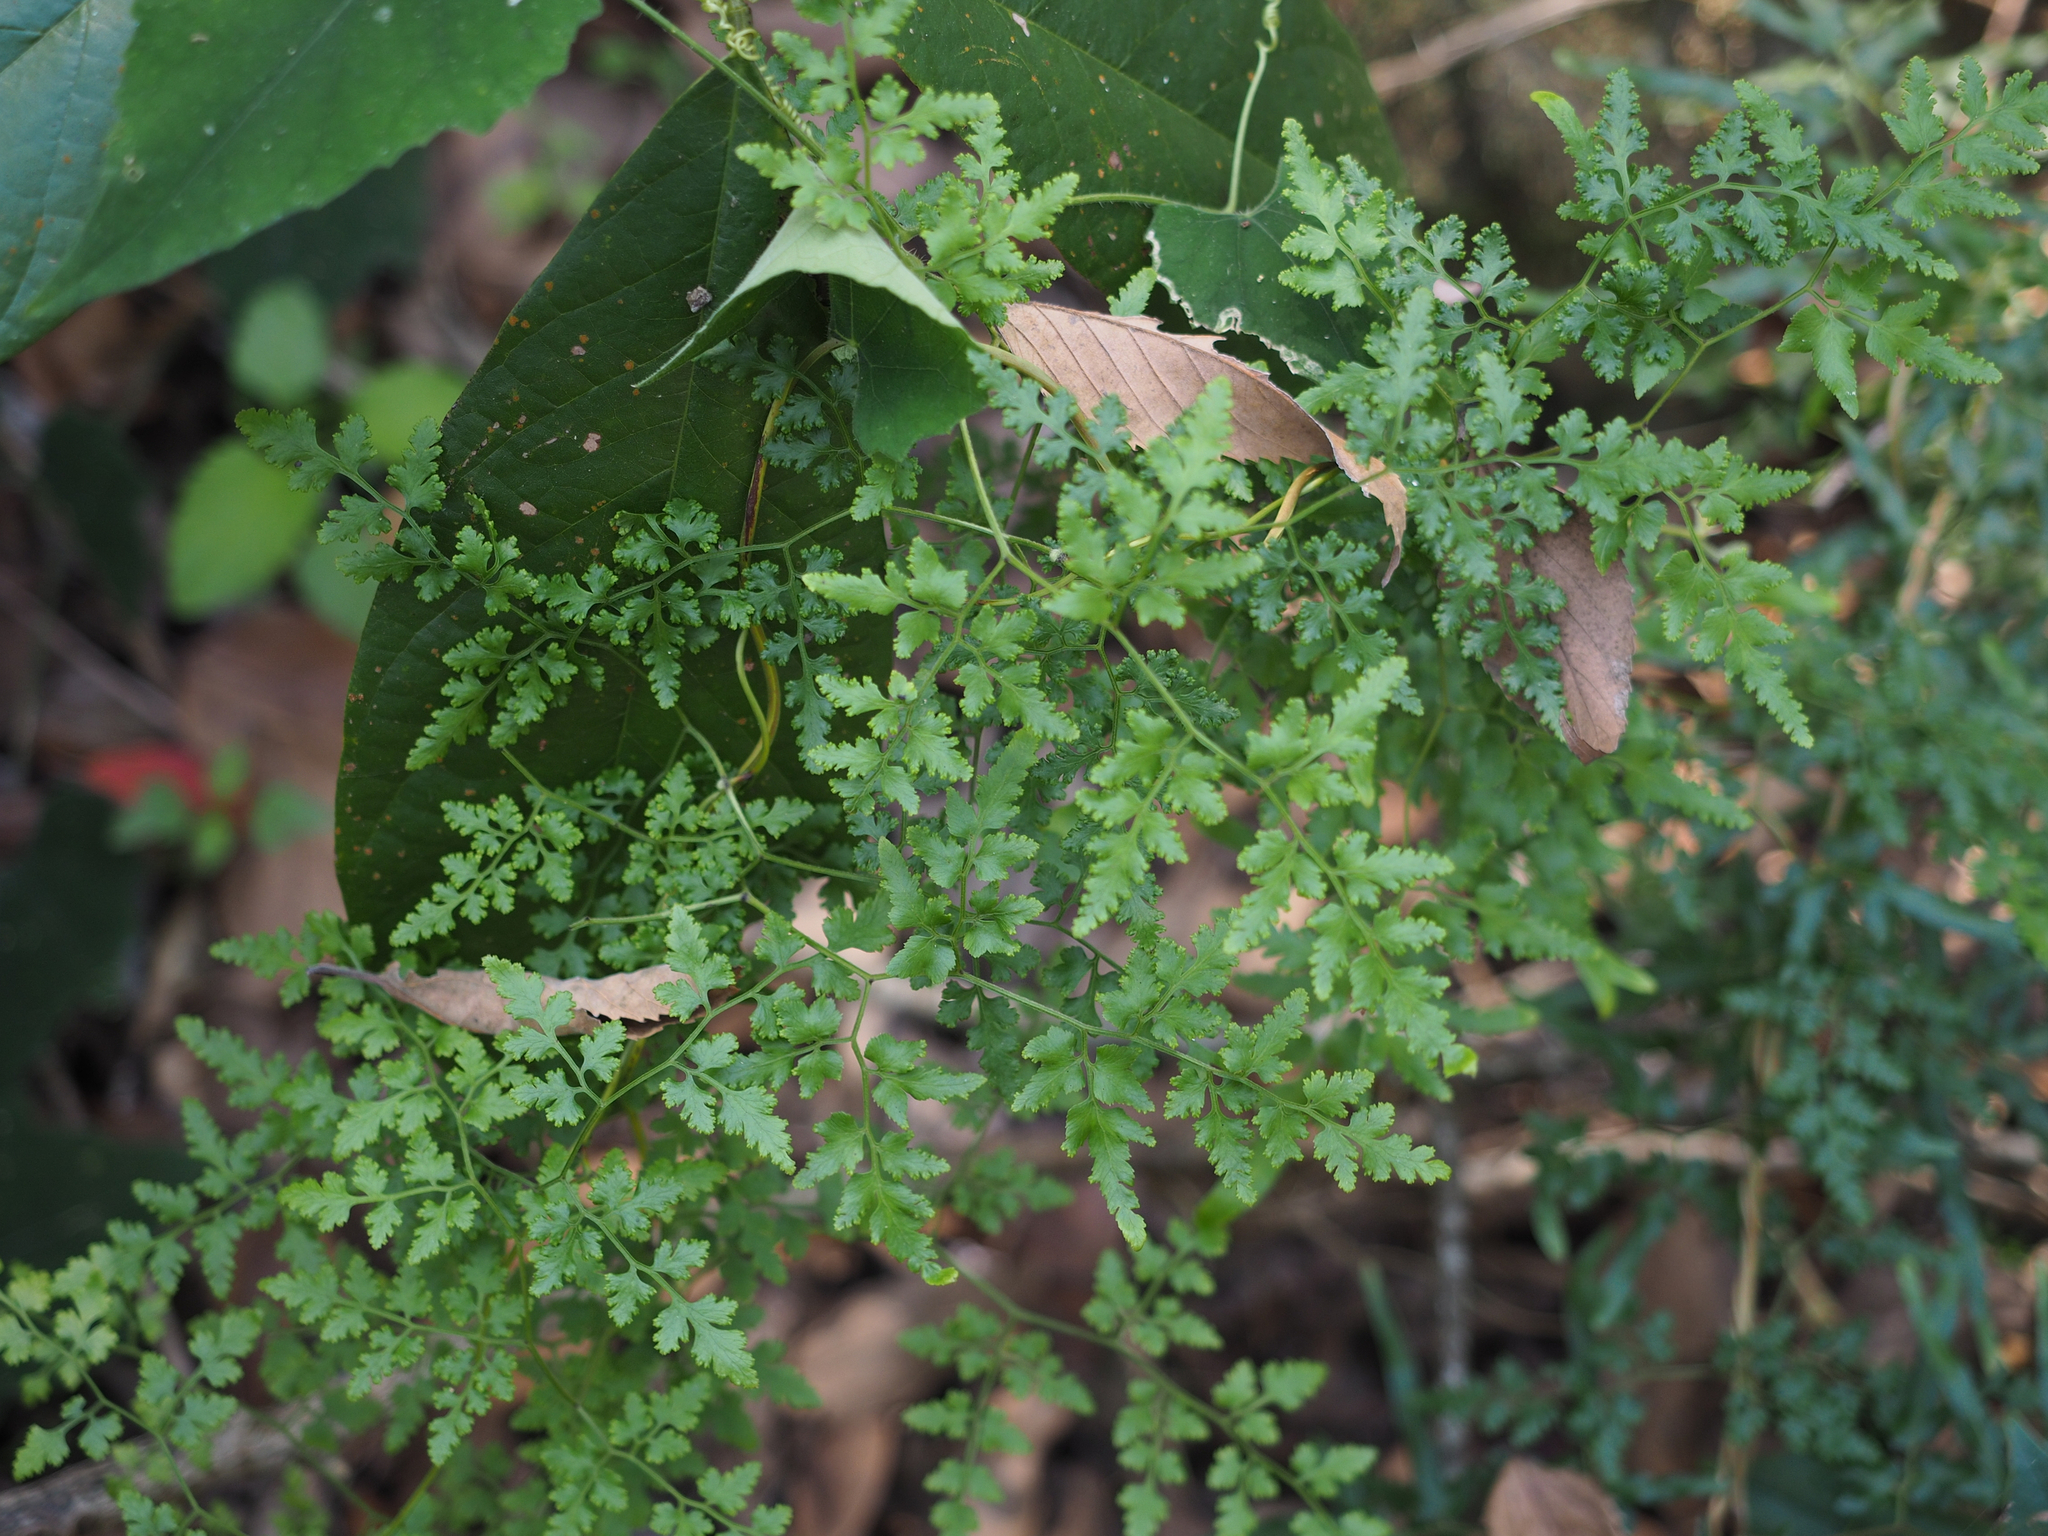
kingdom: Plantae
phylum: Tracheophyta
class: Polypodiopsida
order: Schizaeales
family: Lygodiaceae
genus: Lygodium
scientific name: Lygodium japonicum
